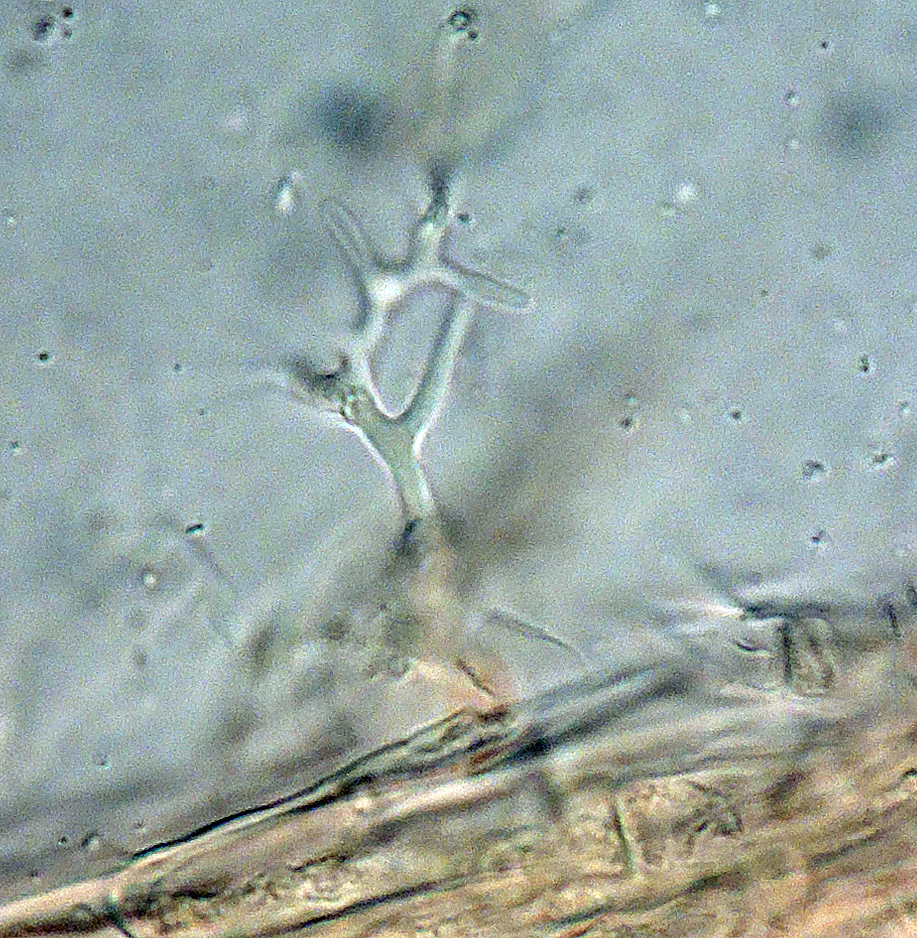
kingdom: Fungi
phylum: Basidiomycota
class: Agaricomycetes
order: Agaricales
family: Typhulaceae
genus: Typhula
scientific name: Typhula
